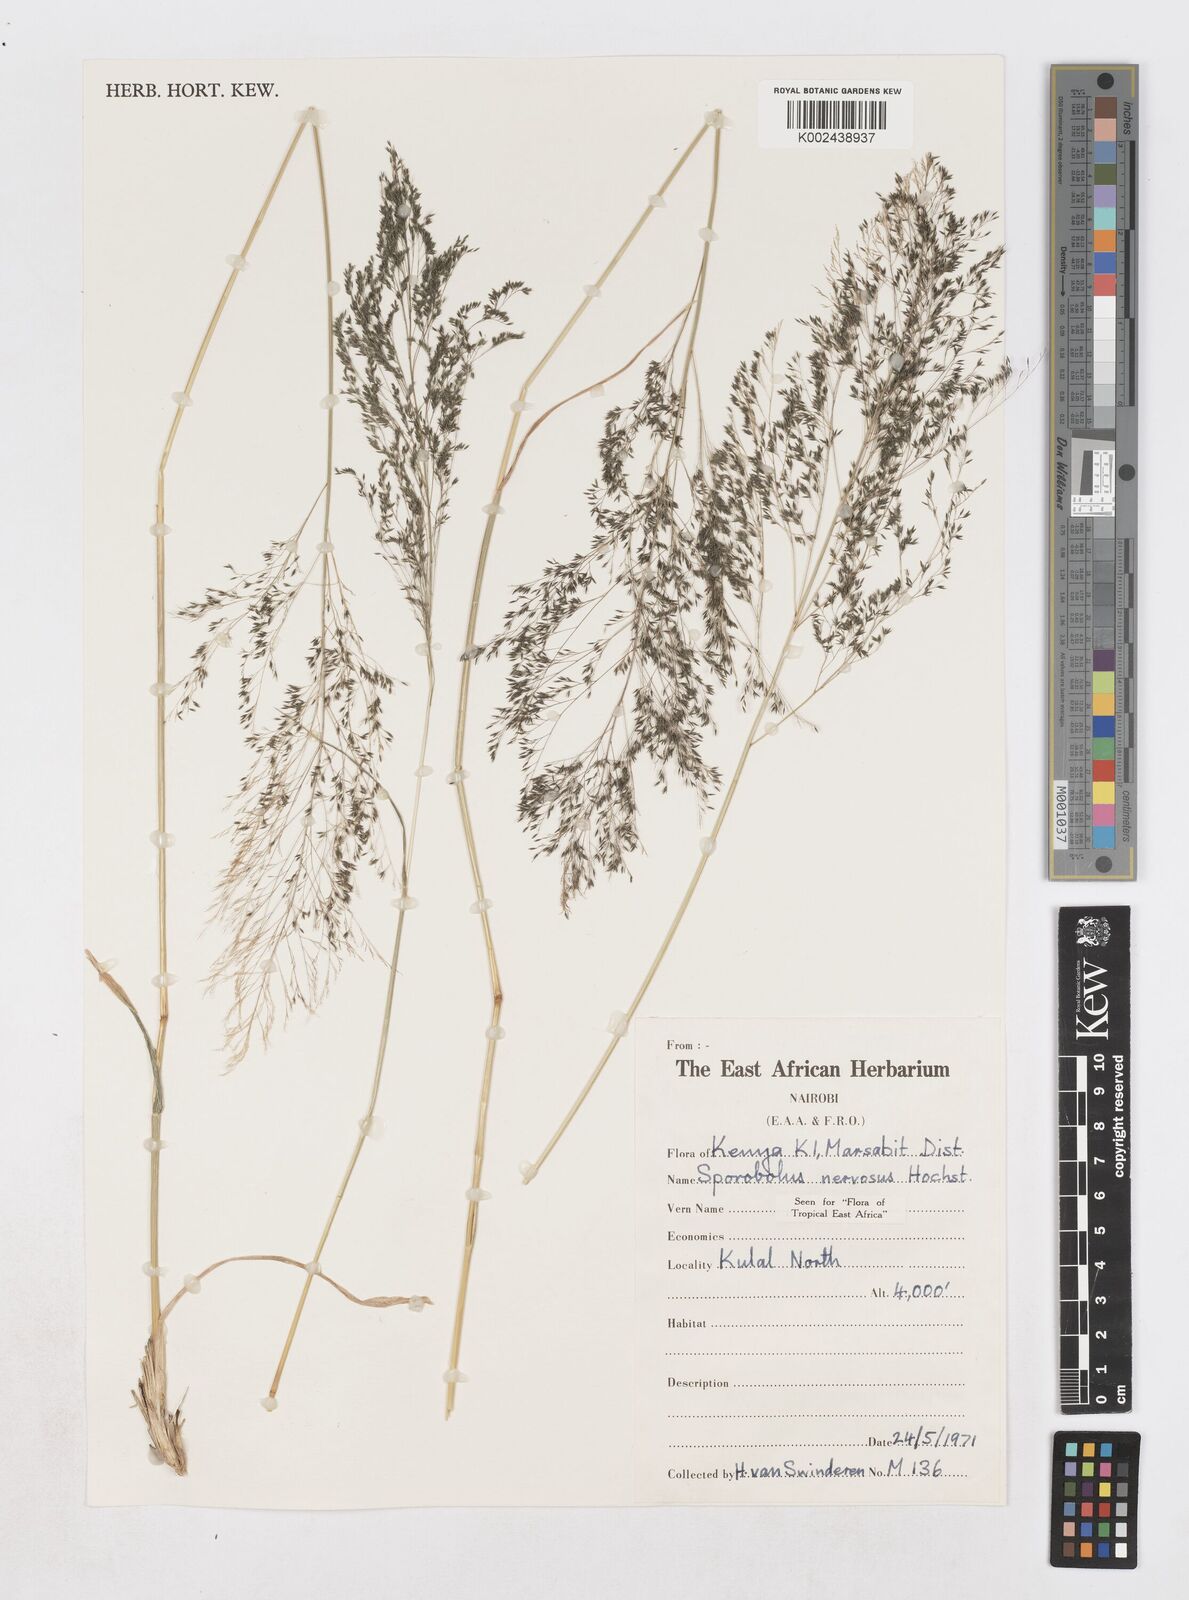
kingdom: Plantae
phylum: Tracheophyta
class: Liliopsida
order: Poales
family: Poaceae
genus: Sporobolus
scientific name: Sporobolus nervosus
